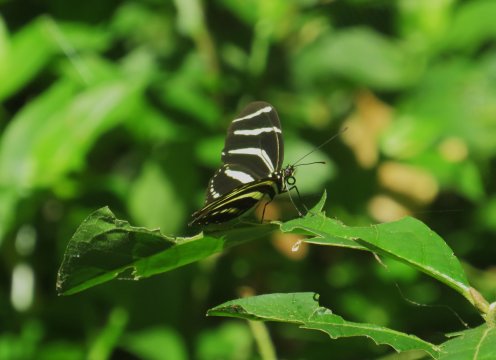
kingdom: Animalia
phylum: Arthropoda
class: Insecta
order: Lepidoptera
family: Nymphalidae
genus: Heliconius
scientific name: Heliconius charithonia
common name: Zebra Longwing
